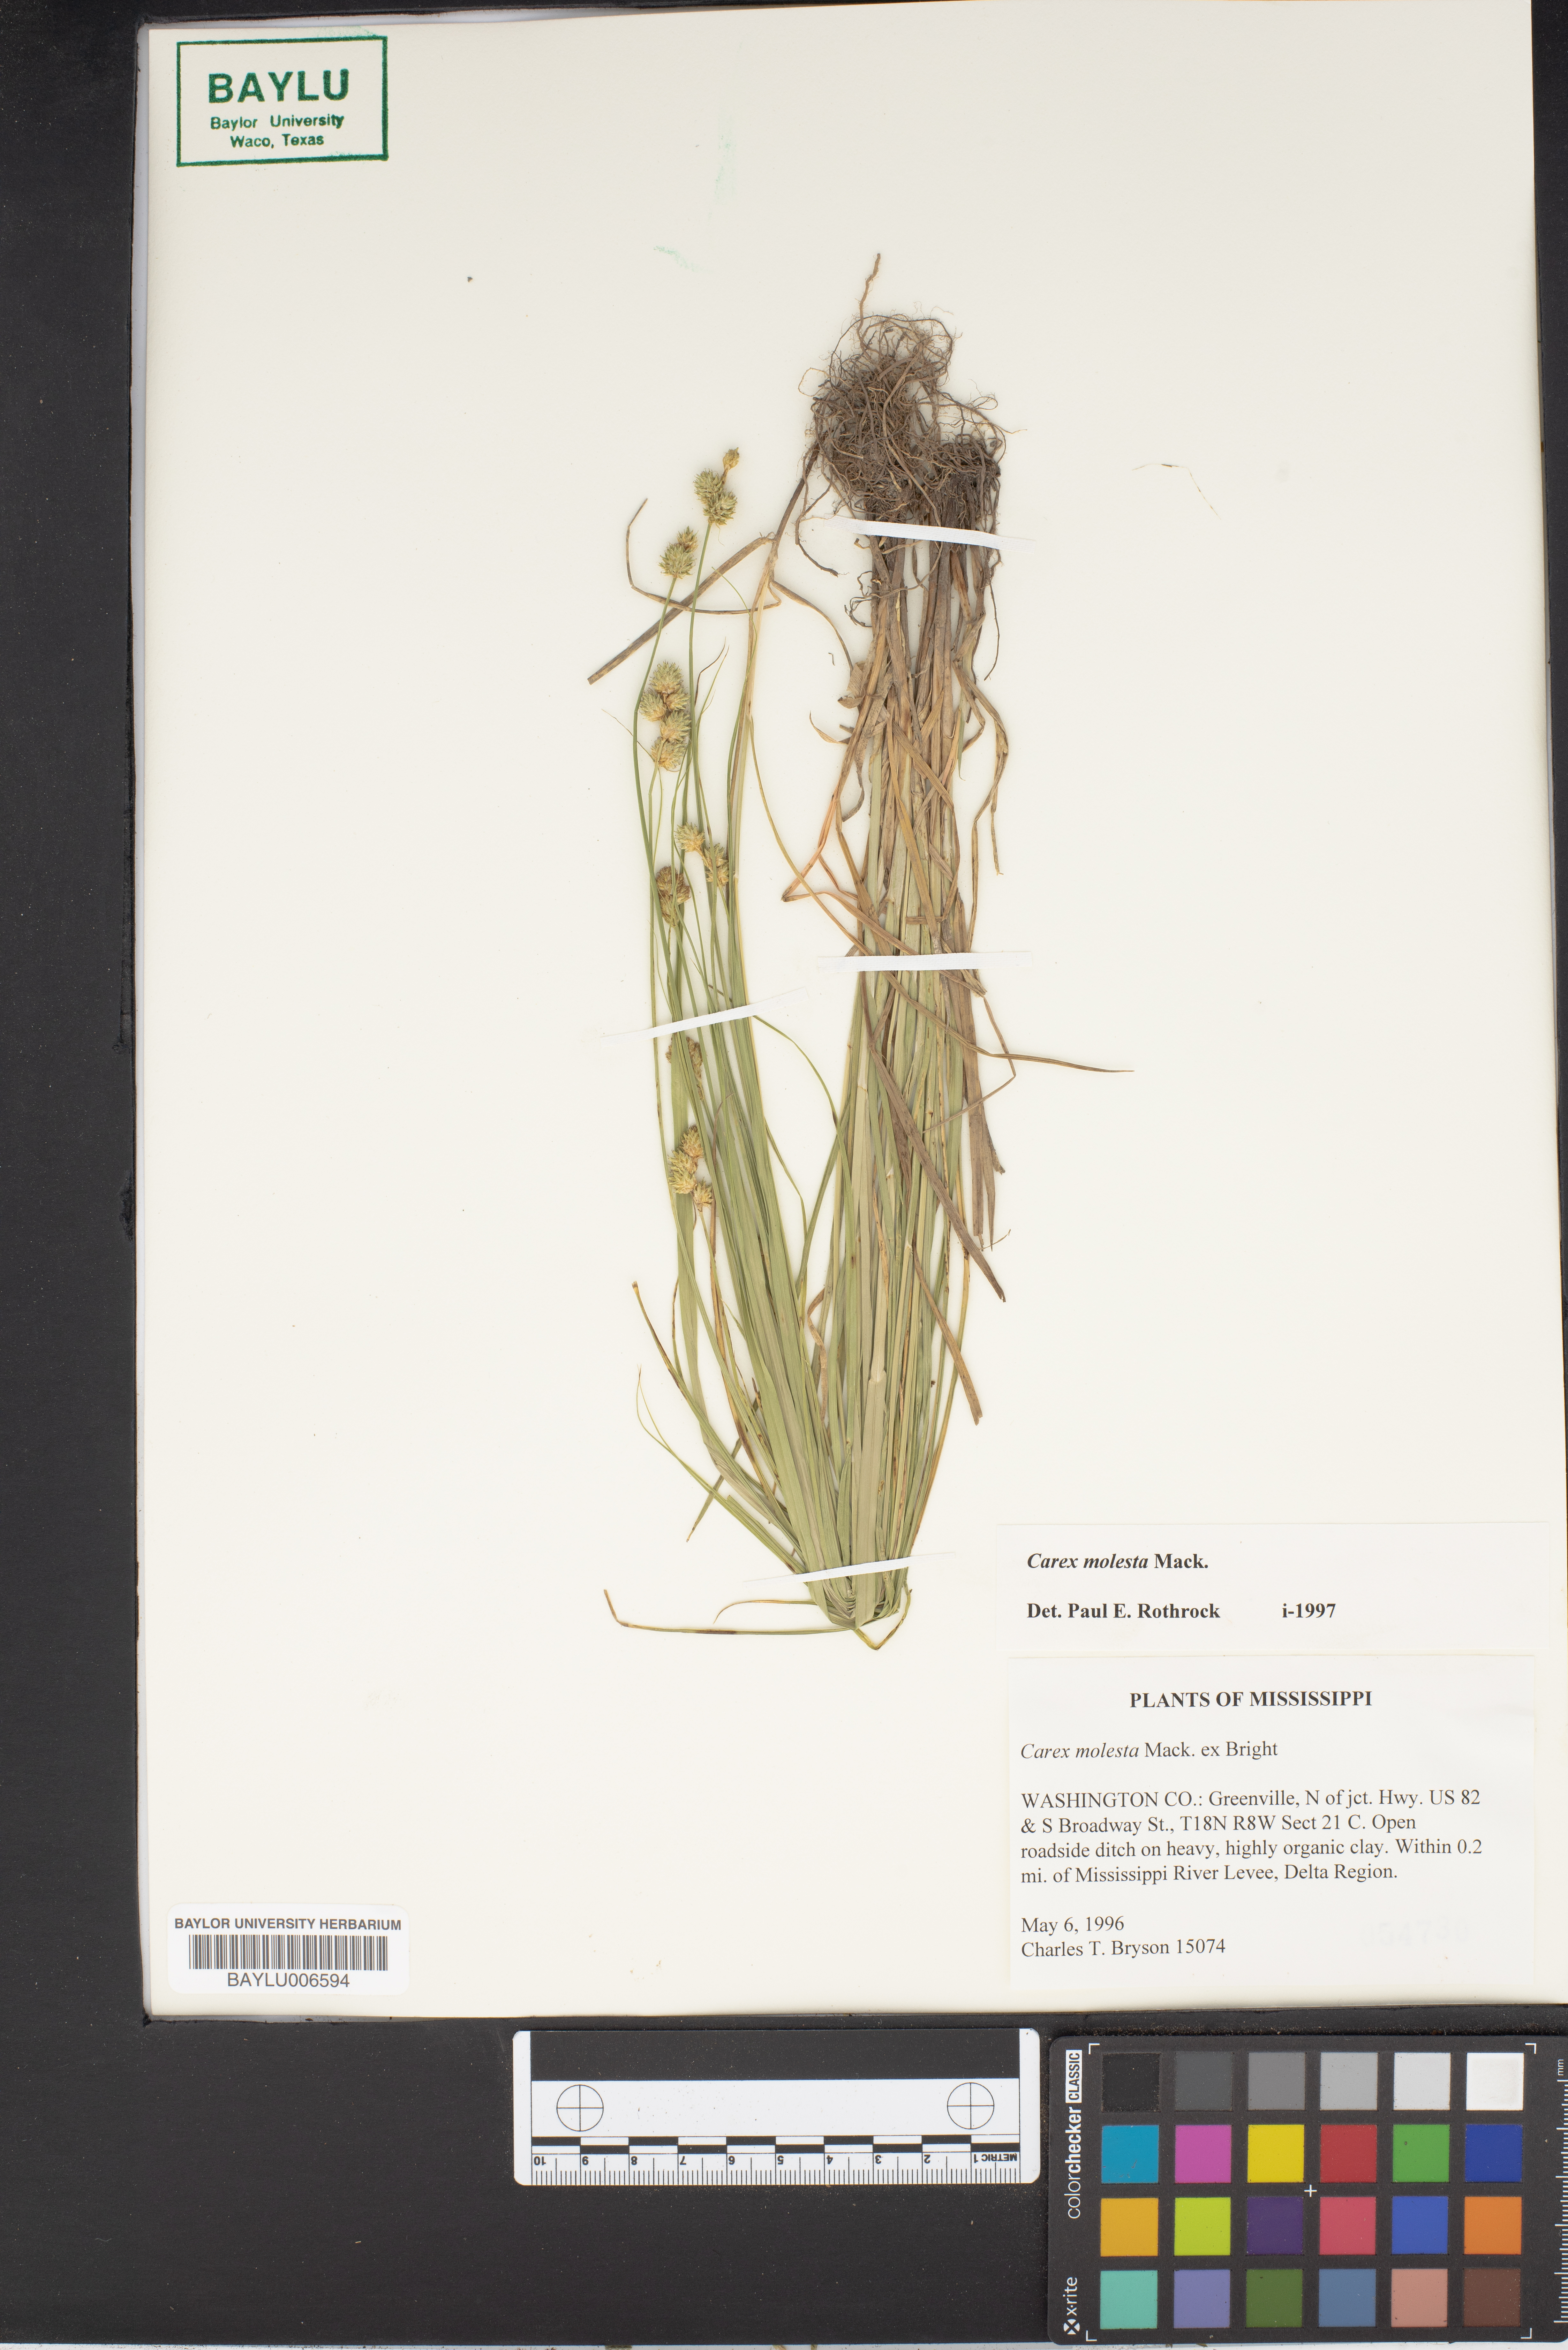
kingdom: Plantae
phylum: Tracheophyta
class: Liliopsida
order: Poales
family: Cyperaceae
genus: Carex
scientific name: Carex molesta
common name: Troublesome sedge
